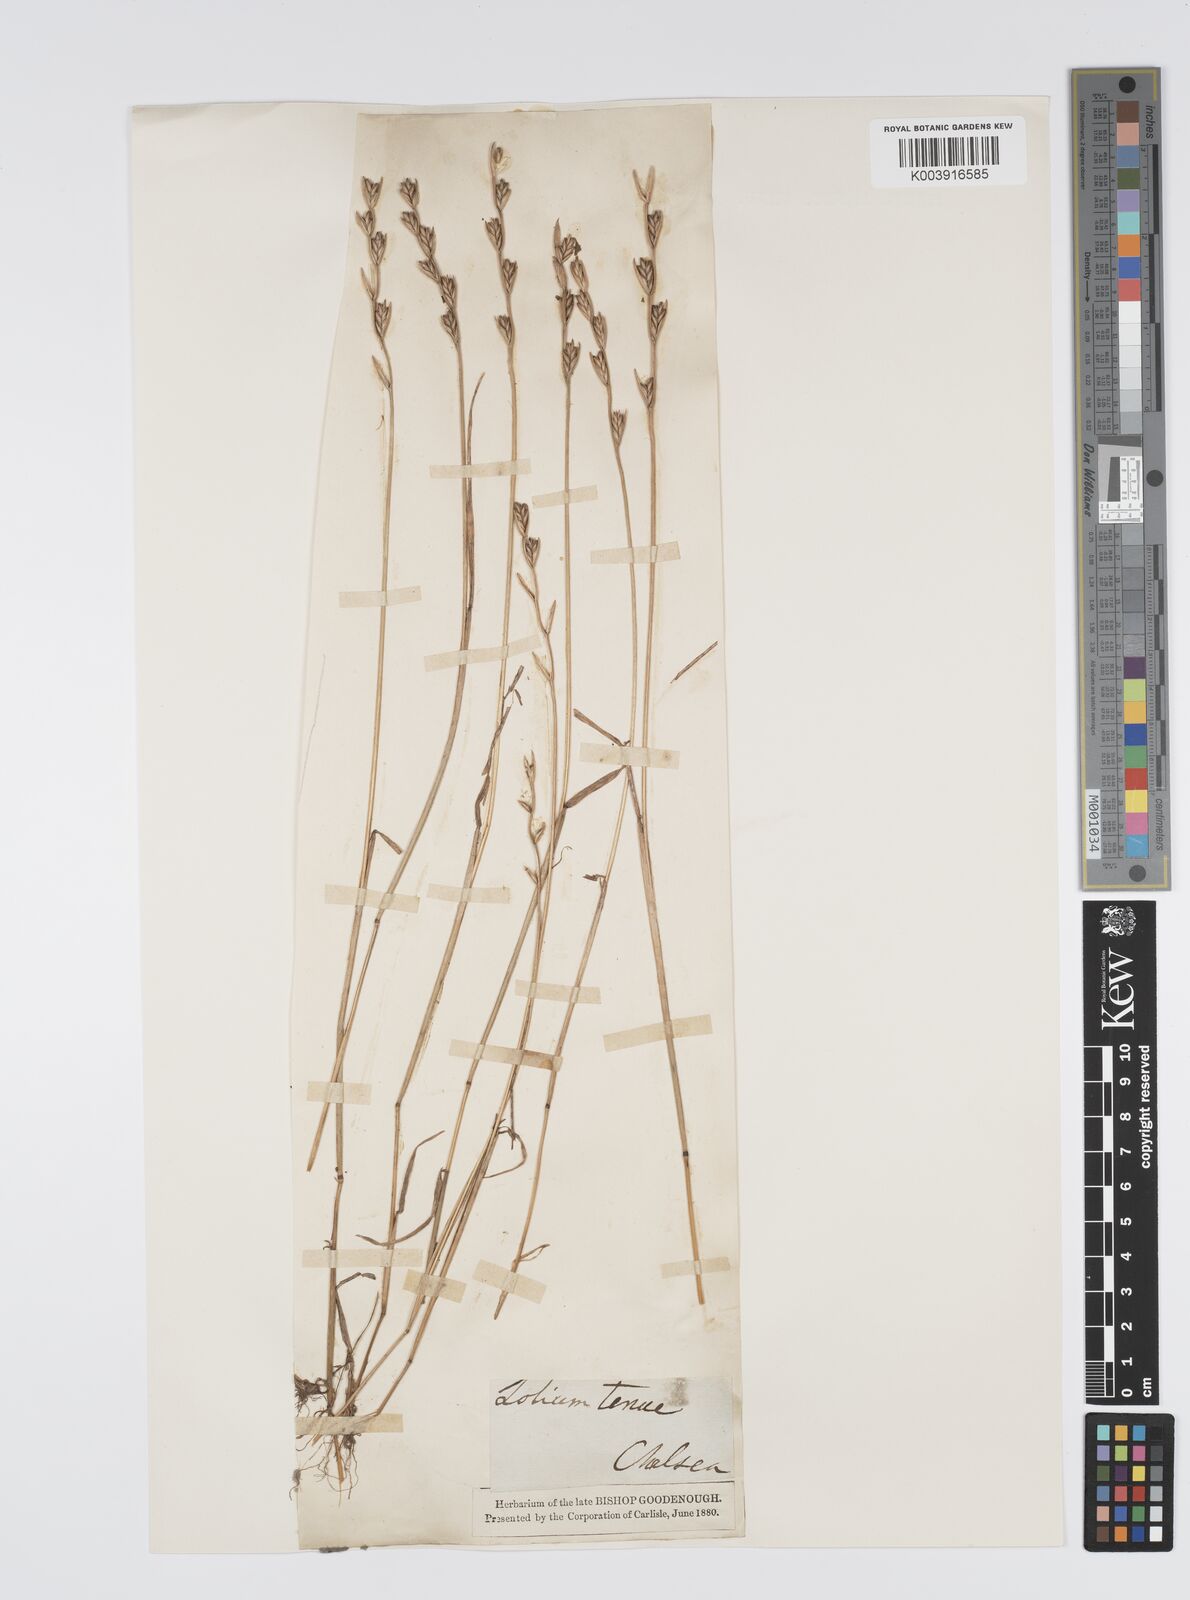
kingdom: Plantae
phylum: Tracheophyta
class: Liliopsida
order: Poales
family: Poaceae
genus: Lolium
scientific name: Lolium remotum
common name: Flaxfield rye-grass
